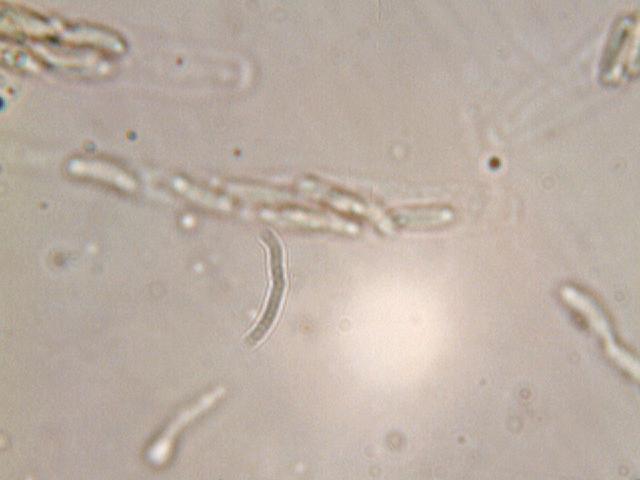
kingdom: Fungi
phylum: Ascomycota
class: Sordariomycetes
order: Xylariales
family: Diatrypaceae
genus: Eutypa
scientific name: Eutypa spinosa
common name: grov kulskorpe
